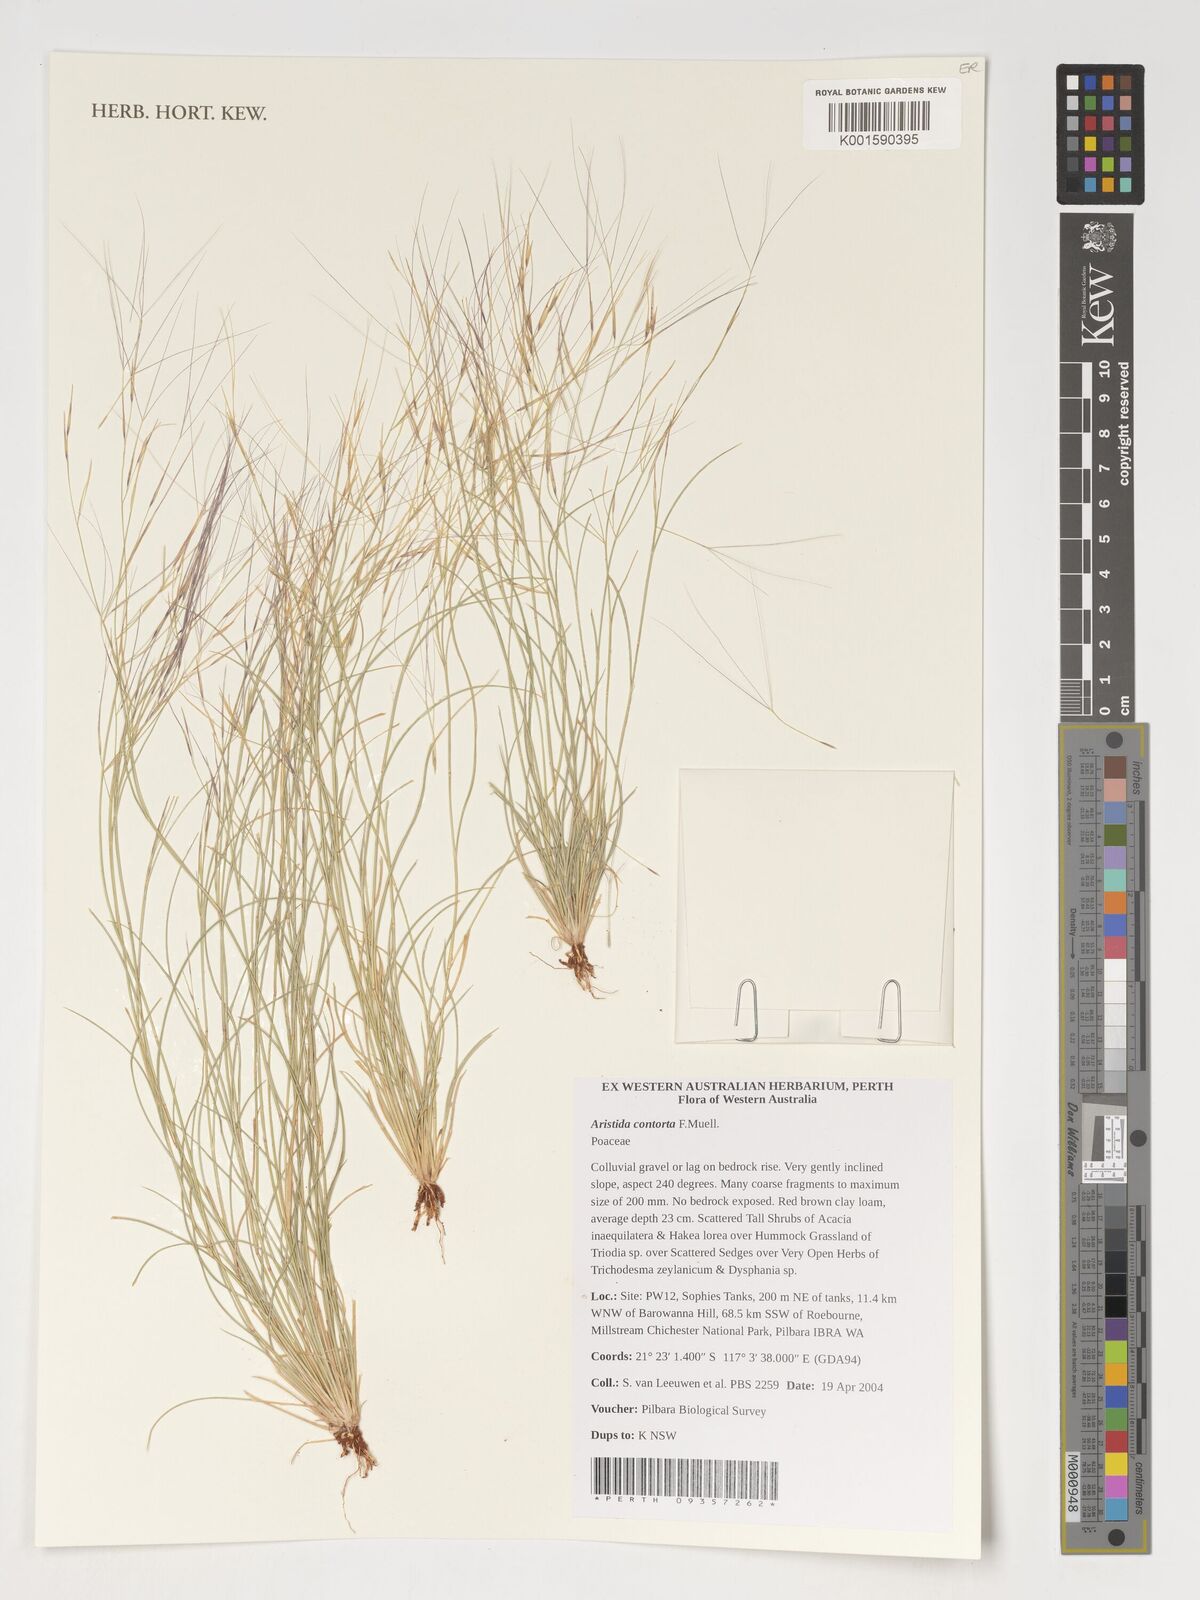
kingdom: Plantae
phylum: Tracheophyta
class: Liliopsida
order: Poales
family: Poaceae
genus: Aristida
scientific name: Aristida
